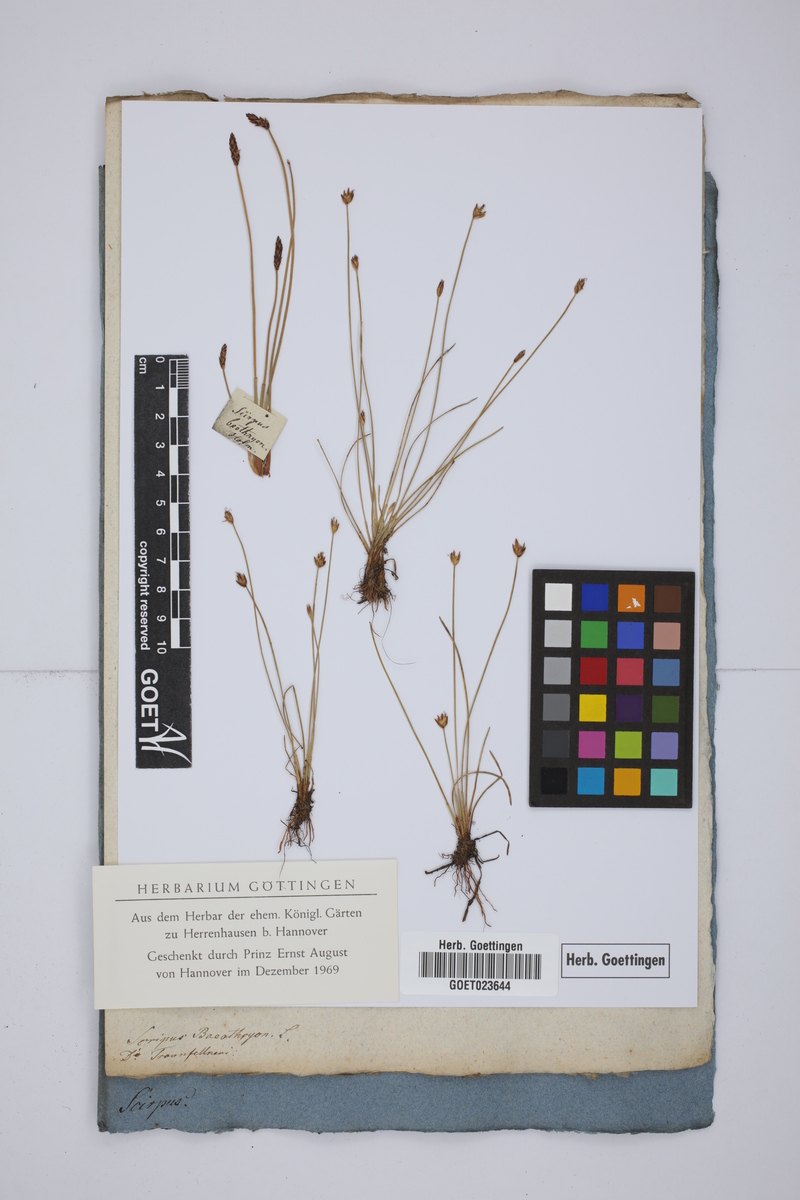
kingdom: Plantae
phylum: Tracheophyta
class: Liliopsida
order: Poales
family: Cyperaceae
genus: Eleocharis
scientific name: Eleocharis quinqueflora
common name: Few-flowered spike-rush
